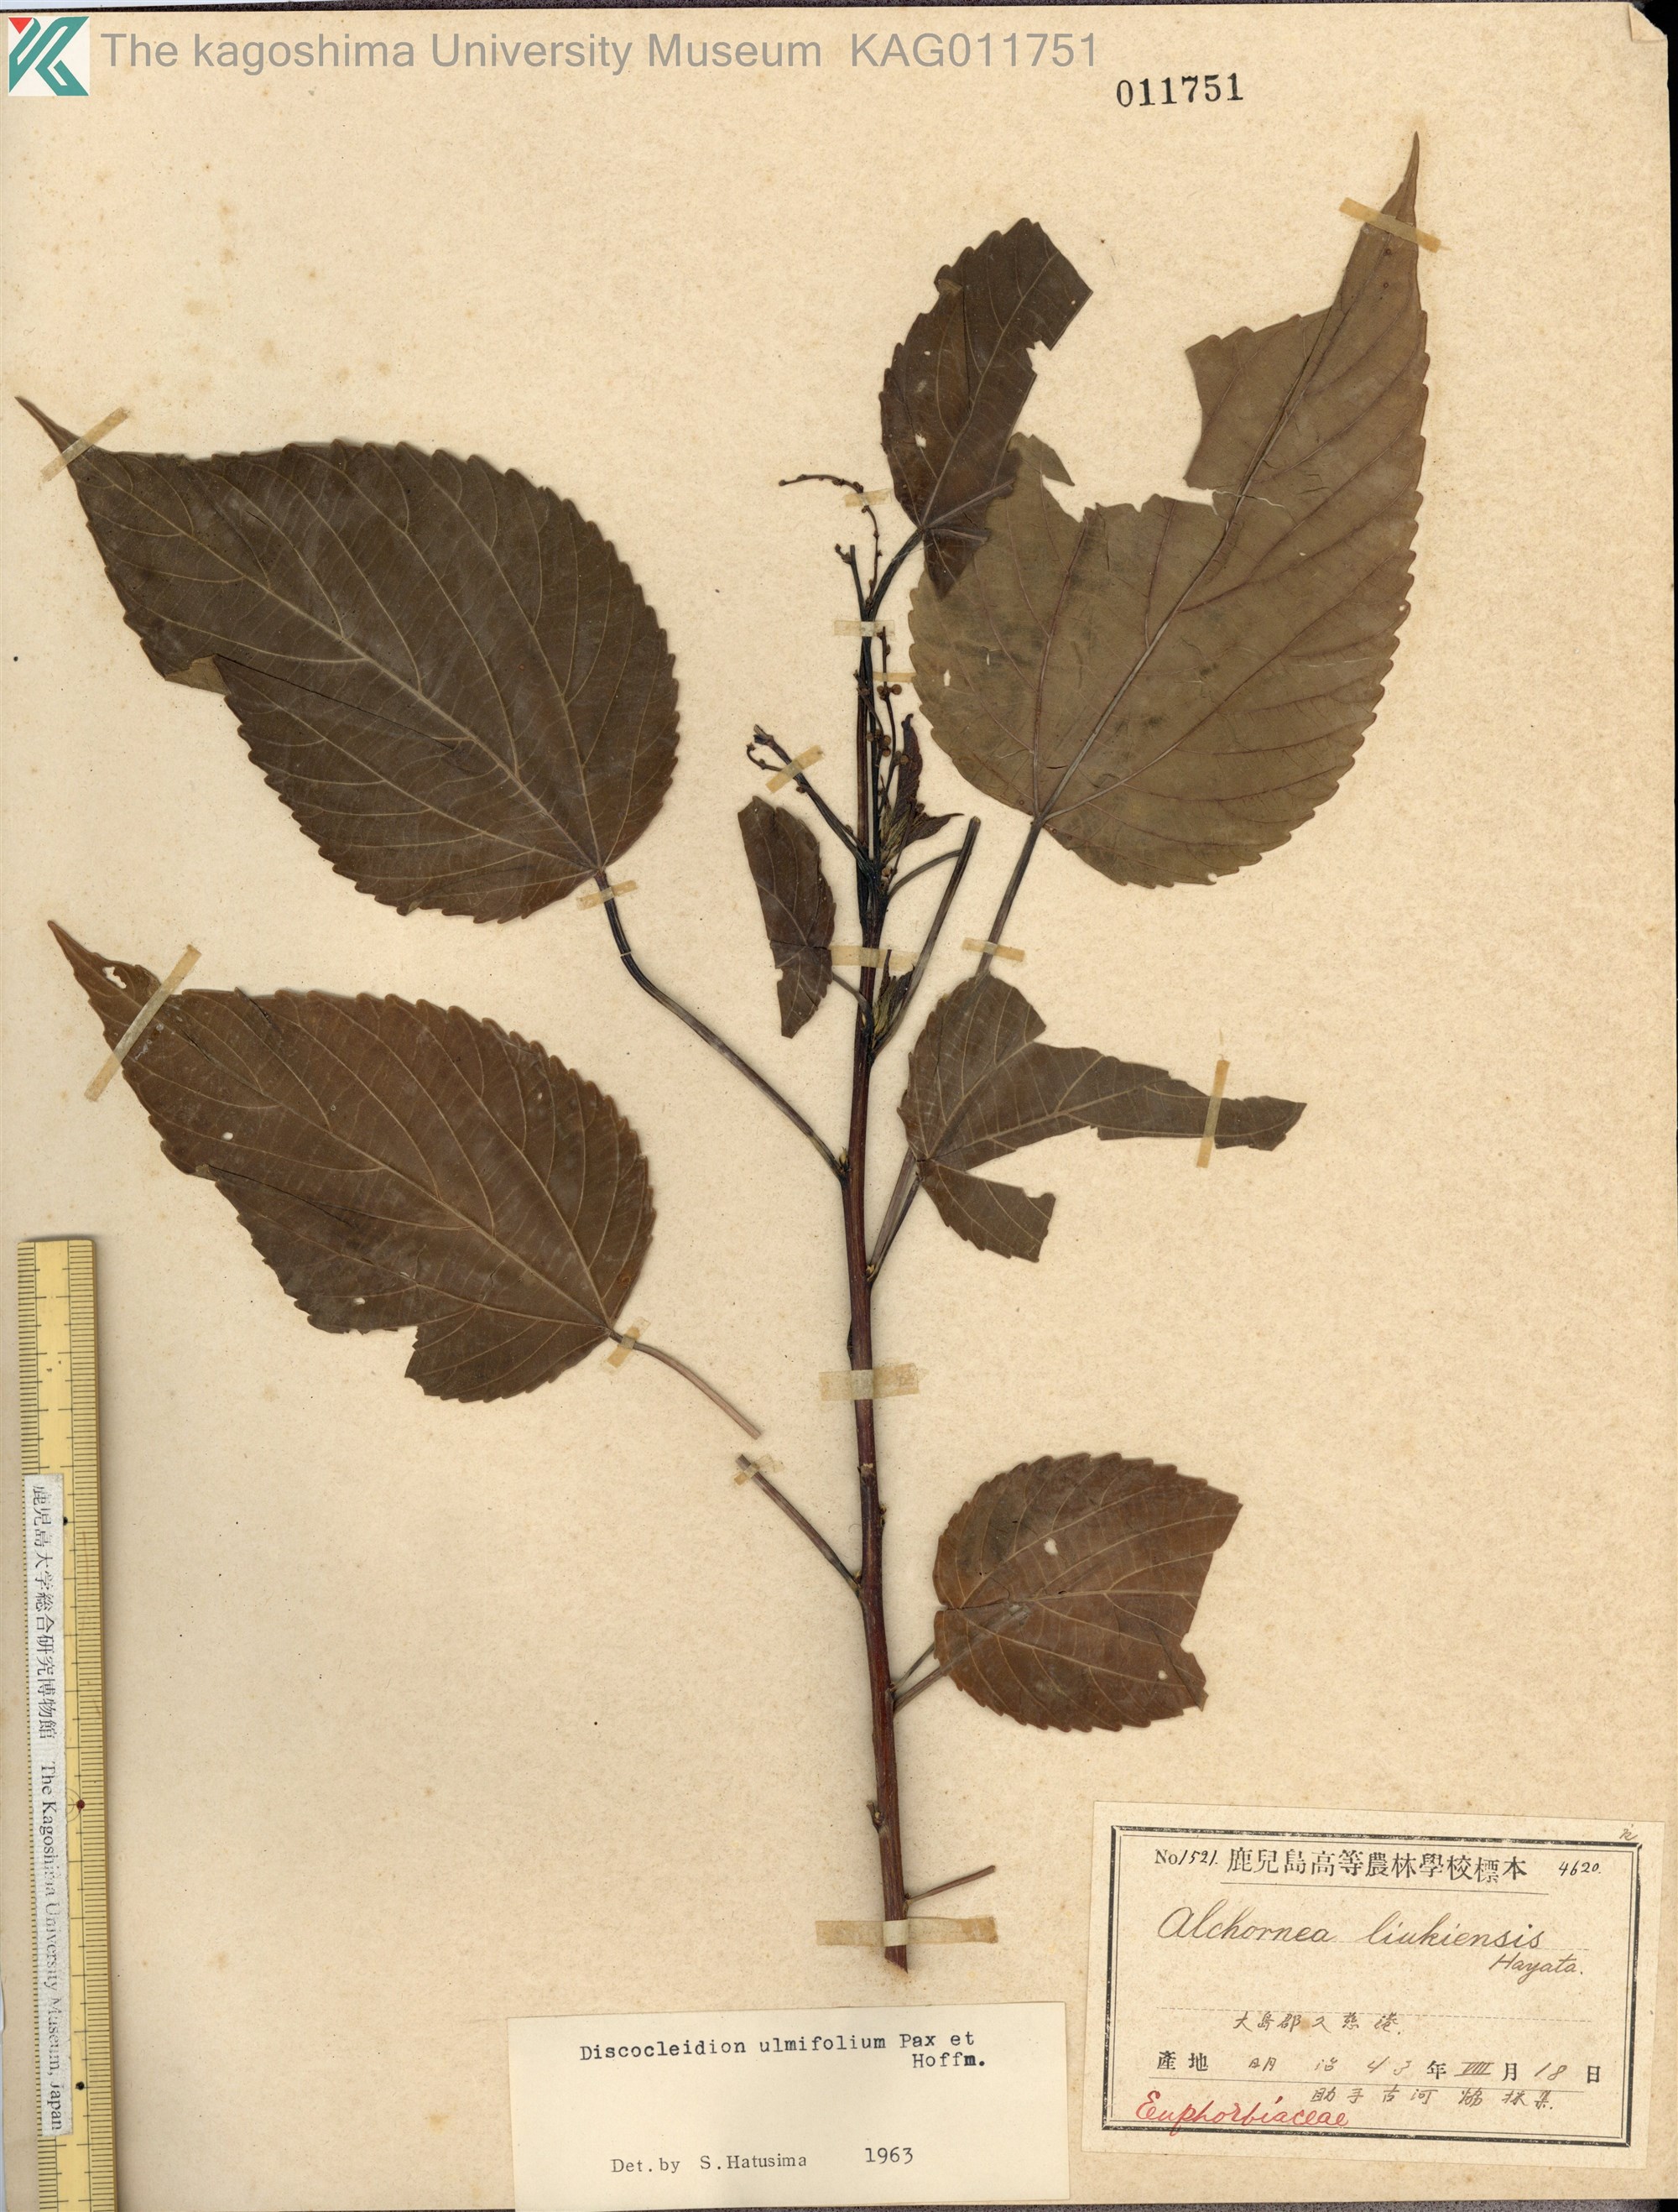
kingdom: Plantae
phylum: Tracheophyta
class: Magnoliopsida
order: Malpighiales
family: Euphorbiaceae
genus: Discocleidion
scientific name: Discocleidion ulmifolium
